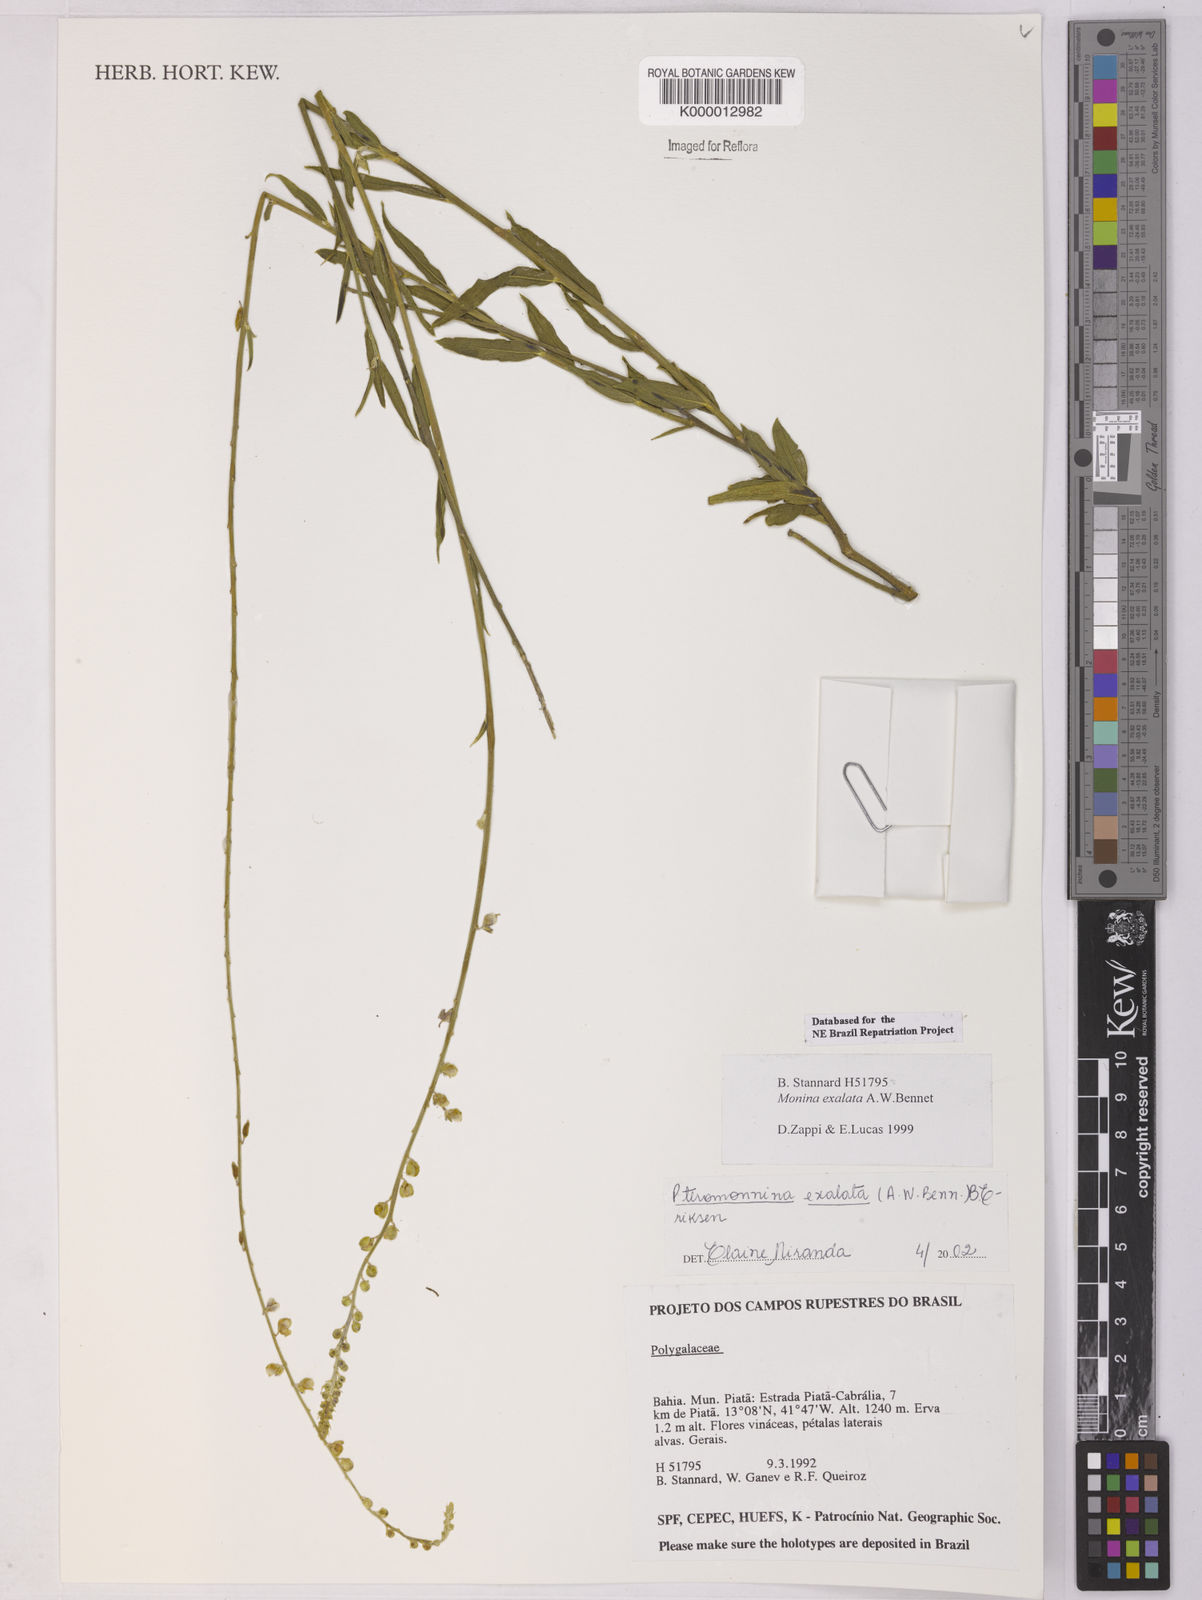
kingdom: Plantae
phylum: Tracheophyta
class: Magnoliopsida
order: Fabales
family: Polygalaceae
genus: Monnina
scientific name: Monnina exalata
